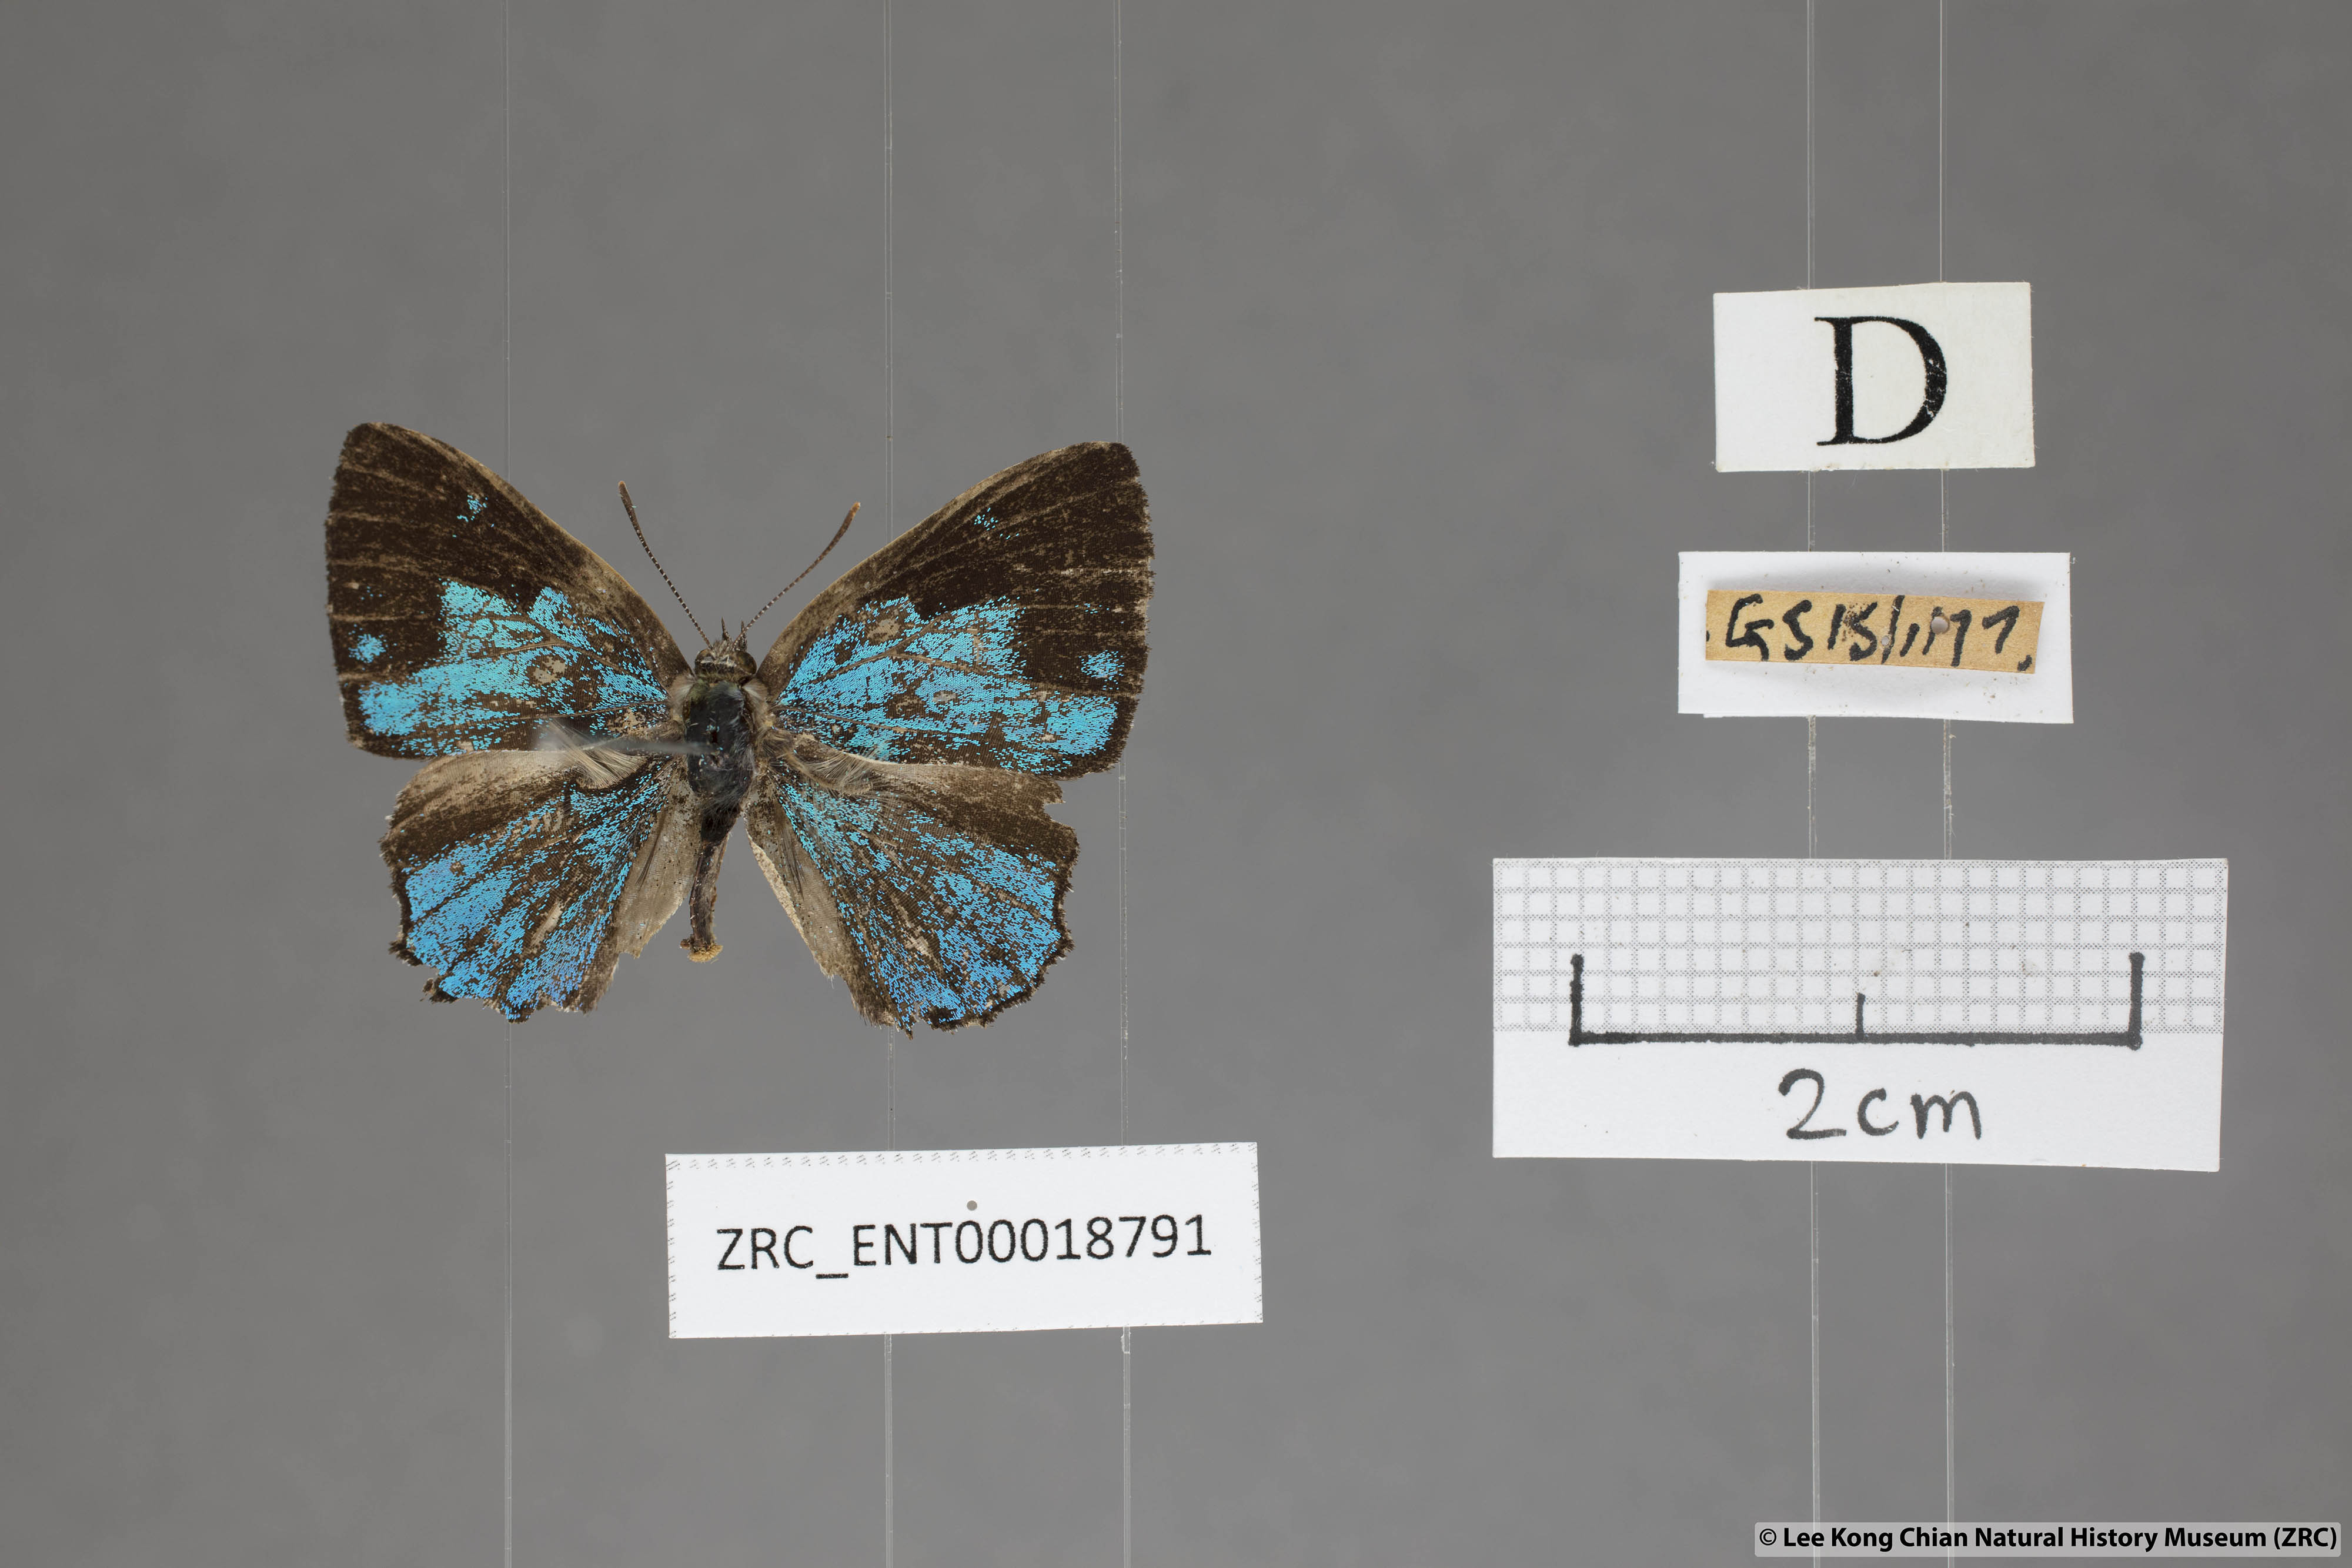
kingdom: Animalia
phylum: Arthropoda
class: Insecta
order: Lepidoptera
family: Lycaenidae
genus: Poritia
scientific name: Poritia pleurata
